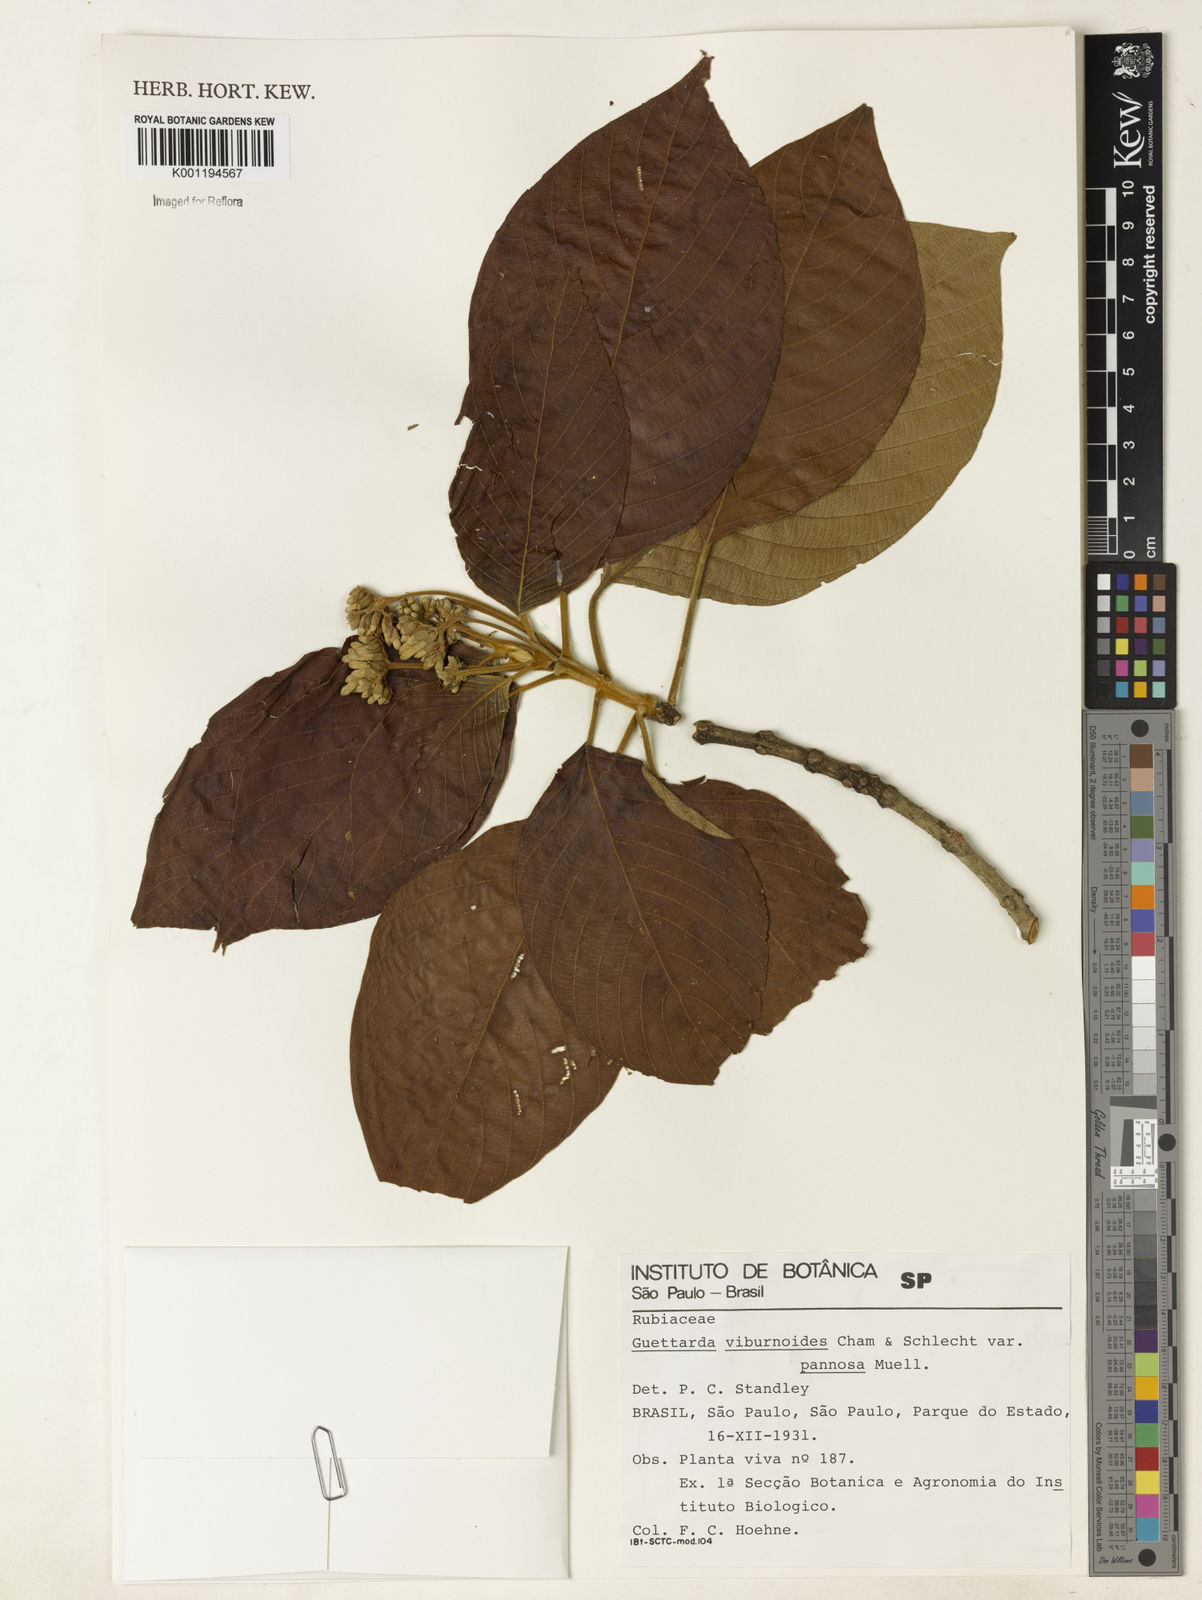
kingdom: Plantae
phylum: Tracheophyta
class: Magnoliopsida
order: Gentianales
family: Rubiaceae
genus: Guettarda
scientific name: Guettarda viburnoides
